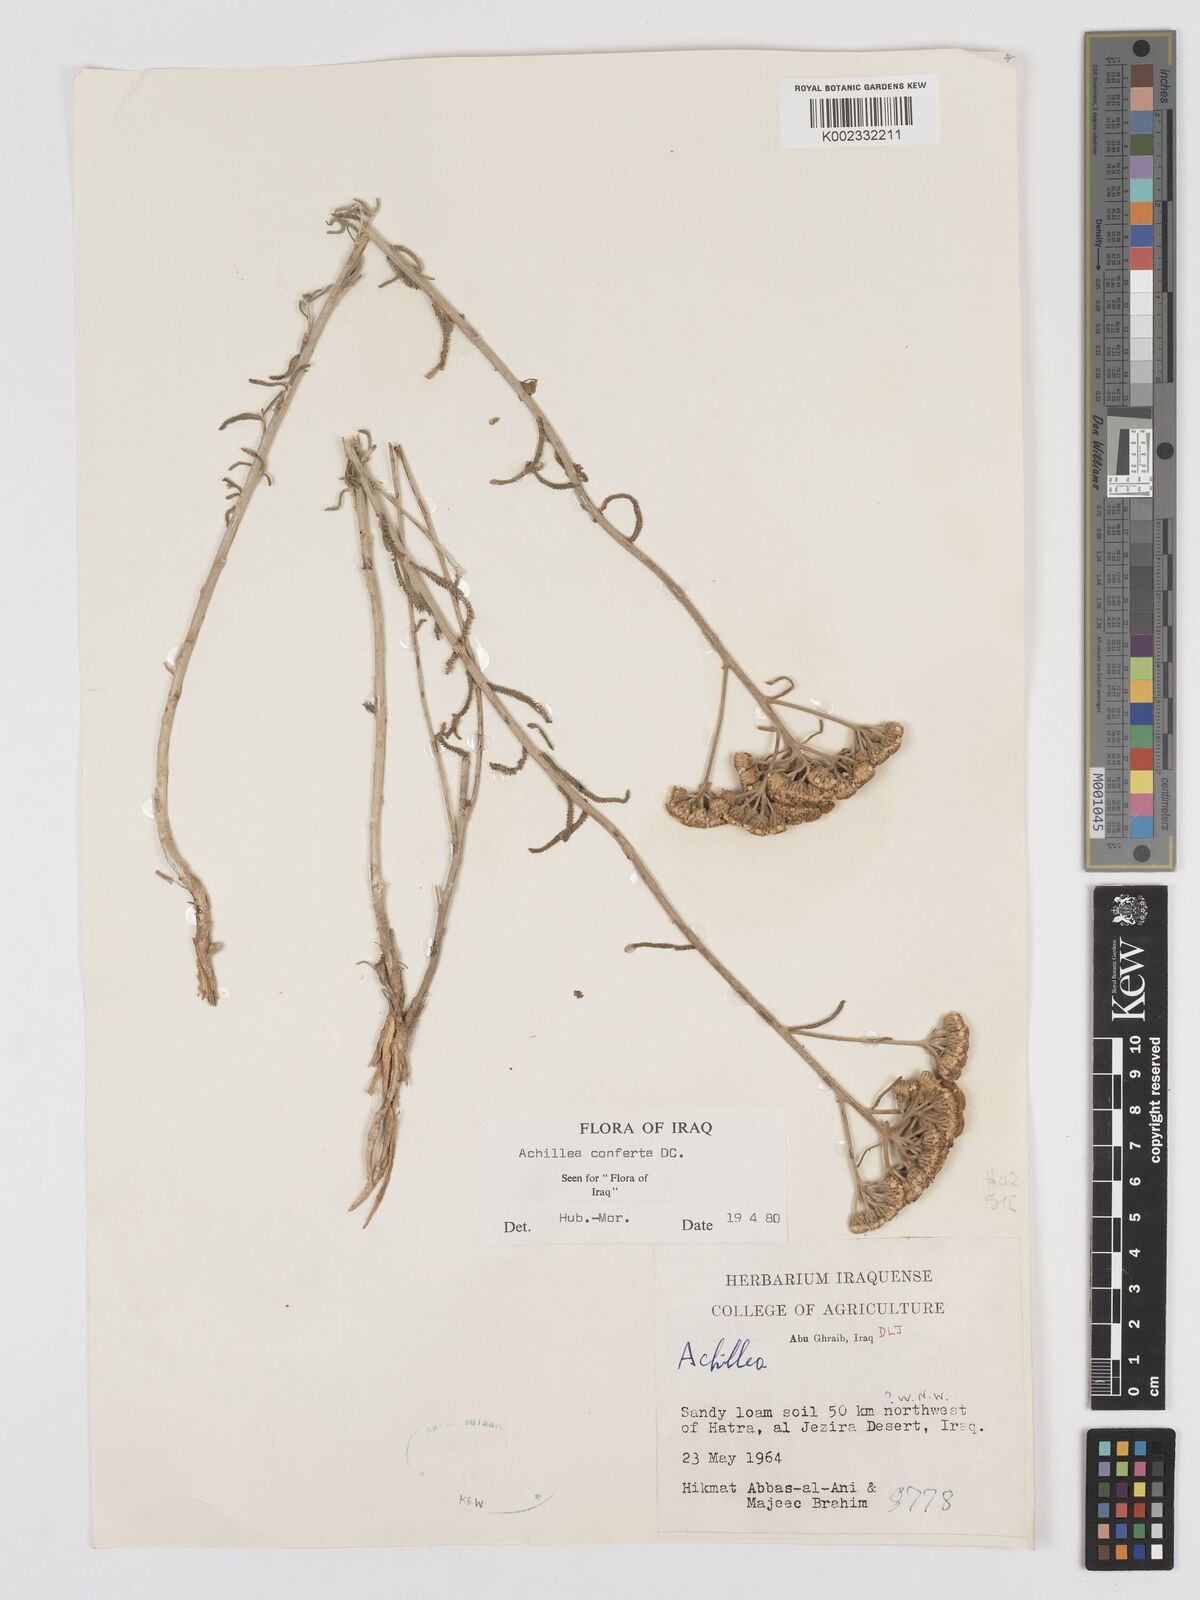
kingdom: Plantae
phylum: Tracheophyta
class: Magnoliopsida
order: Asterales
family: Asteraceae
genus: Achillea
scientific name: Achillea conferta
